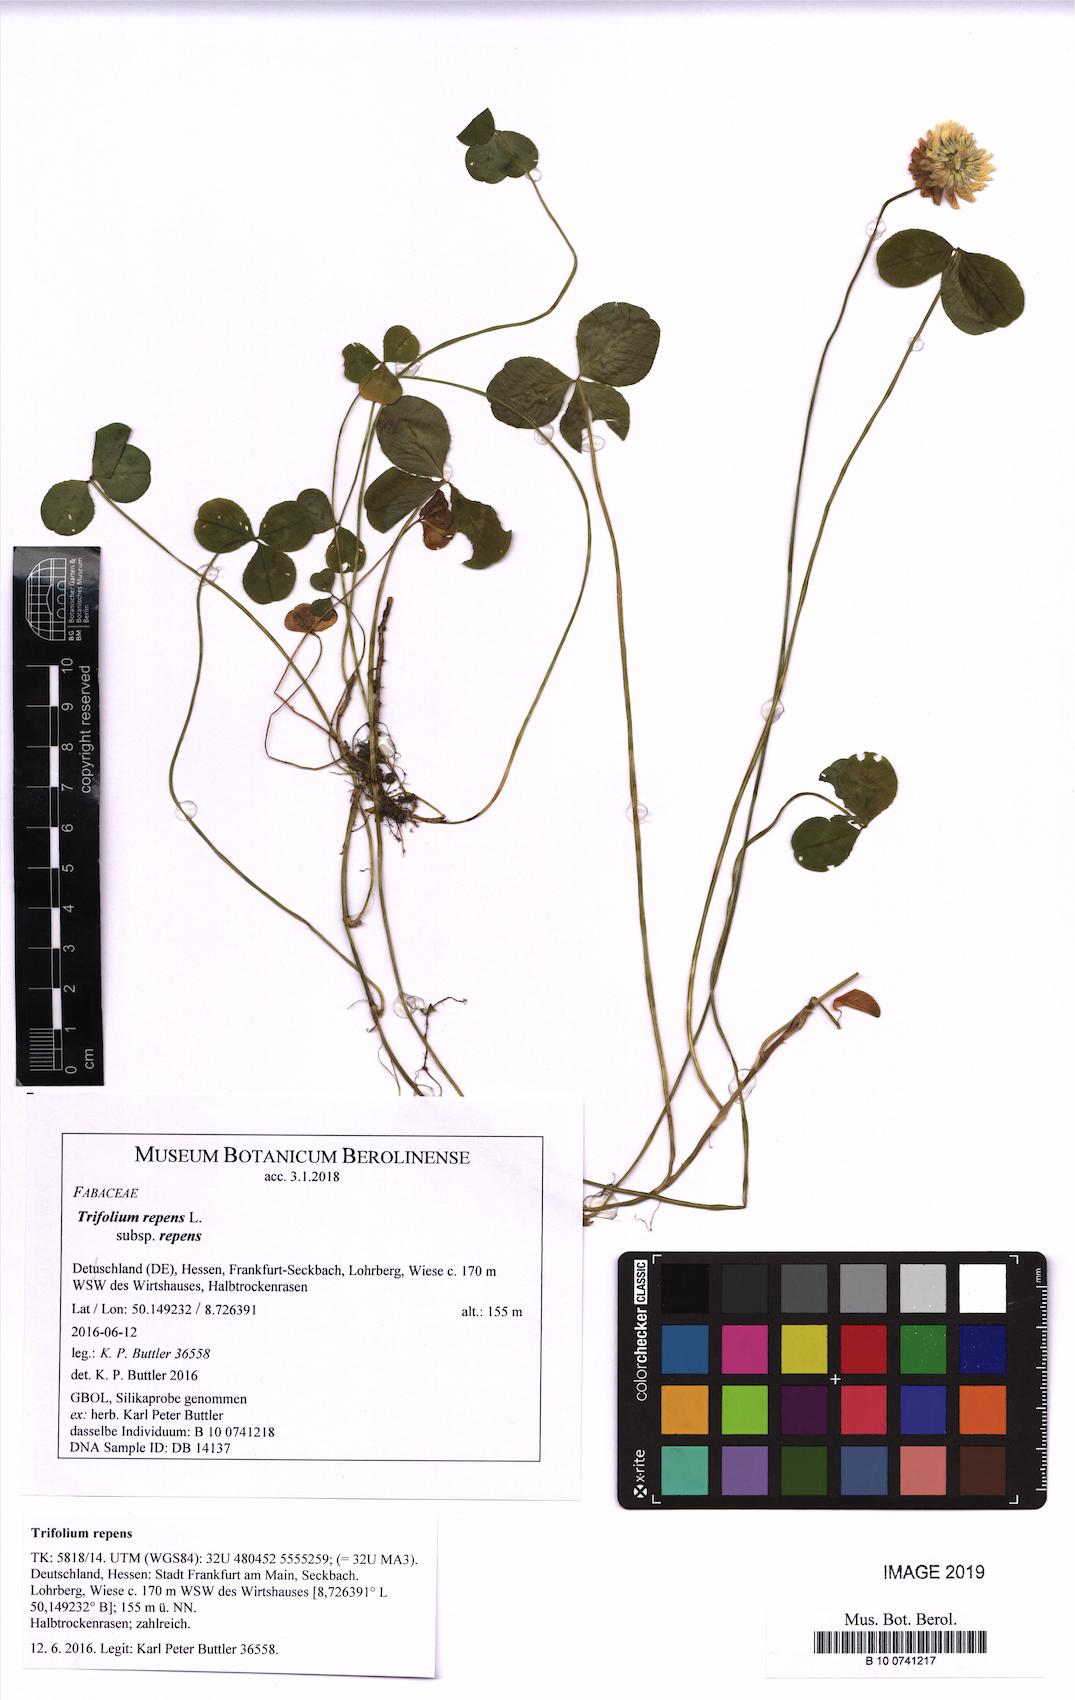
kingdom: Plantae
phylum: Tracheophyta
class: Magnoliopsida
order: Fabales
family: Fabaceae
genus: Trifolium
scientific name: Trifolium repens
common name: White clover
